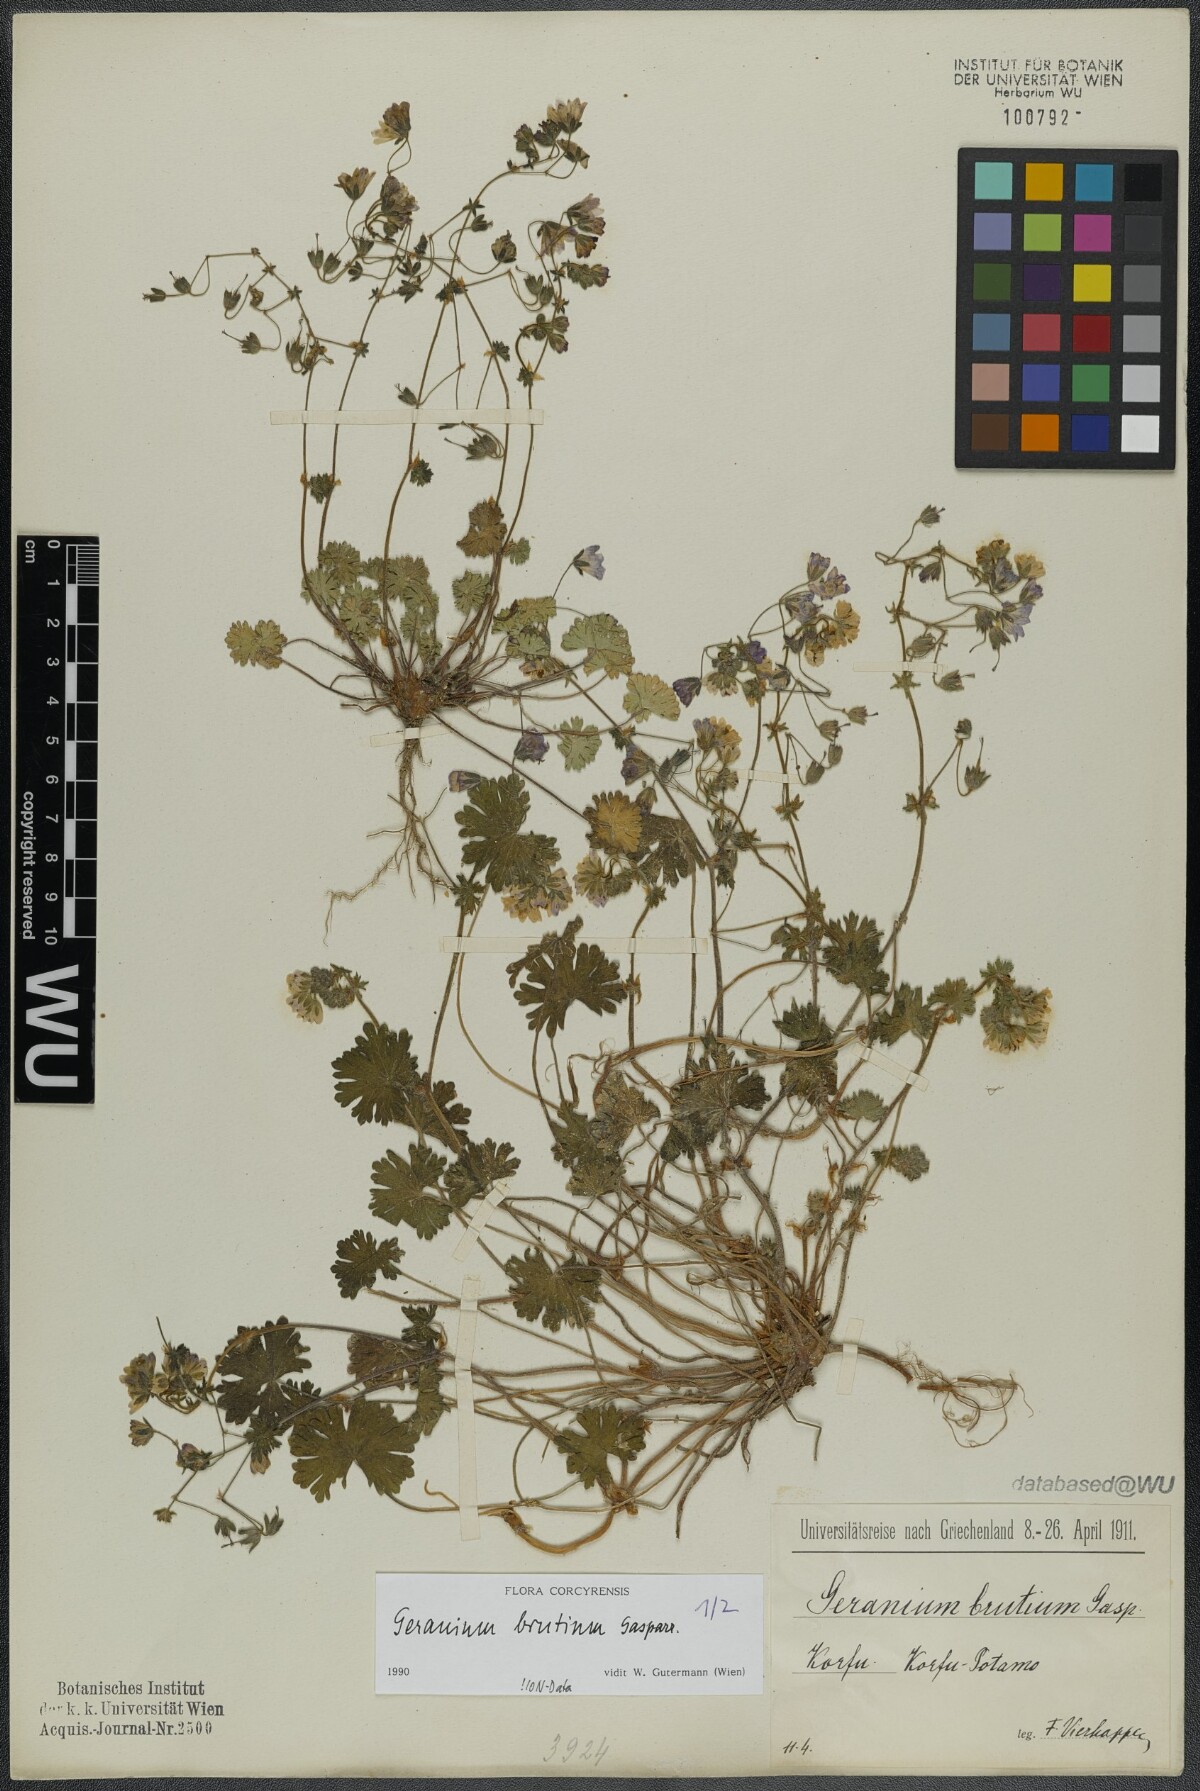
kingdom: Plantae
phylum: Tracheophyta
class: Magnoliopsida
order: Geraniales
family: Geraniaceae
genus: Geranium
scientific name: Geranium molle
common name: Dove's-foot crane's-bill
